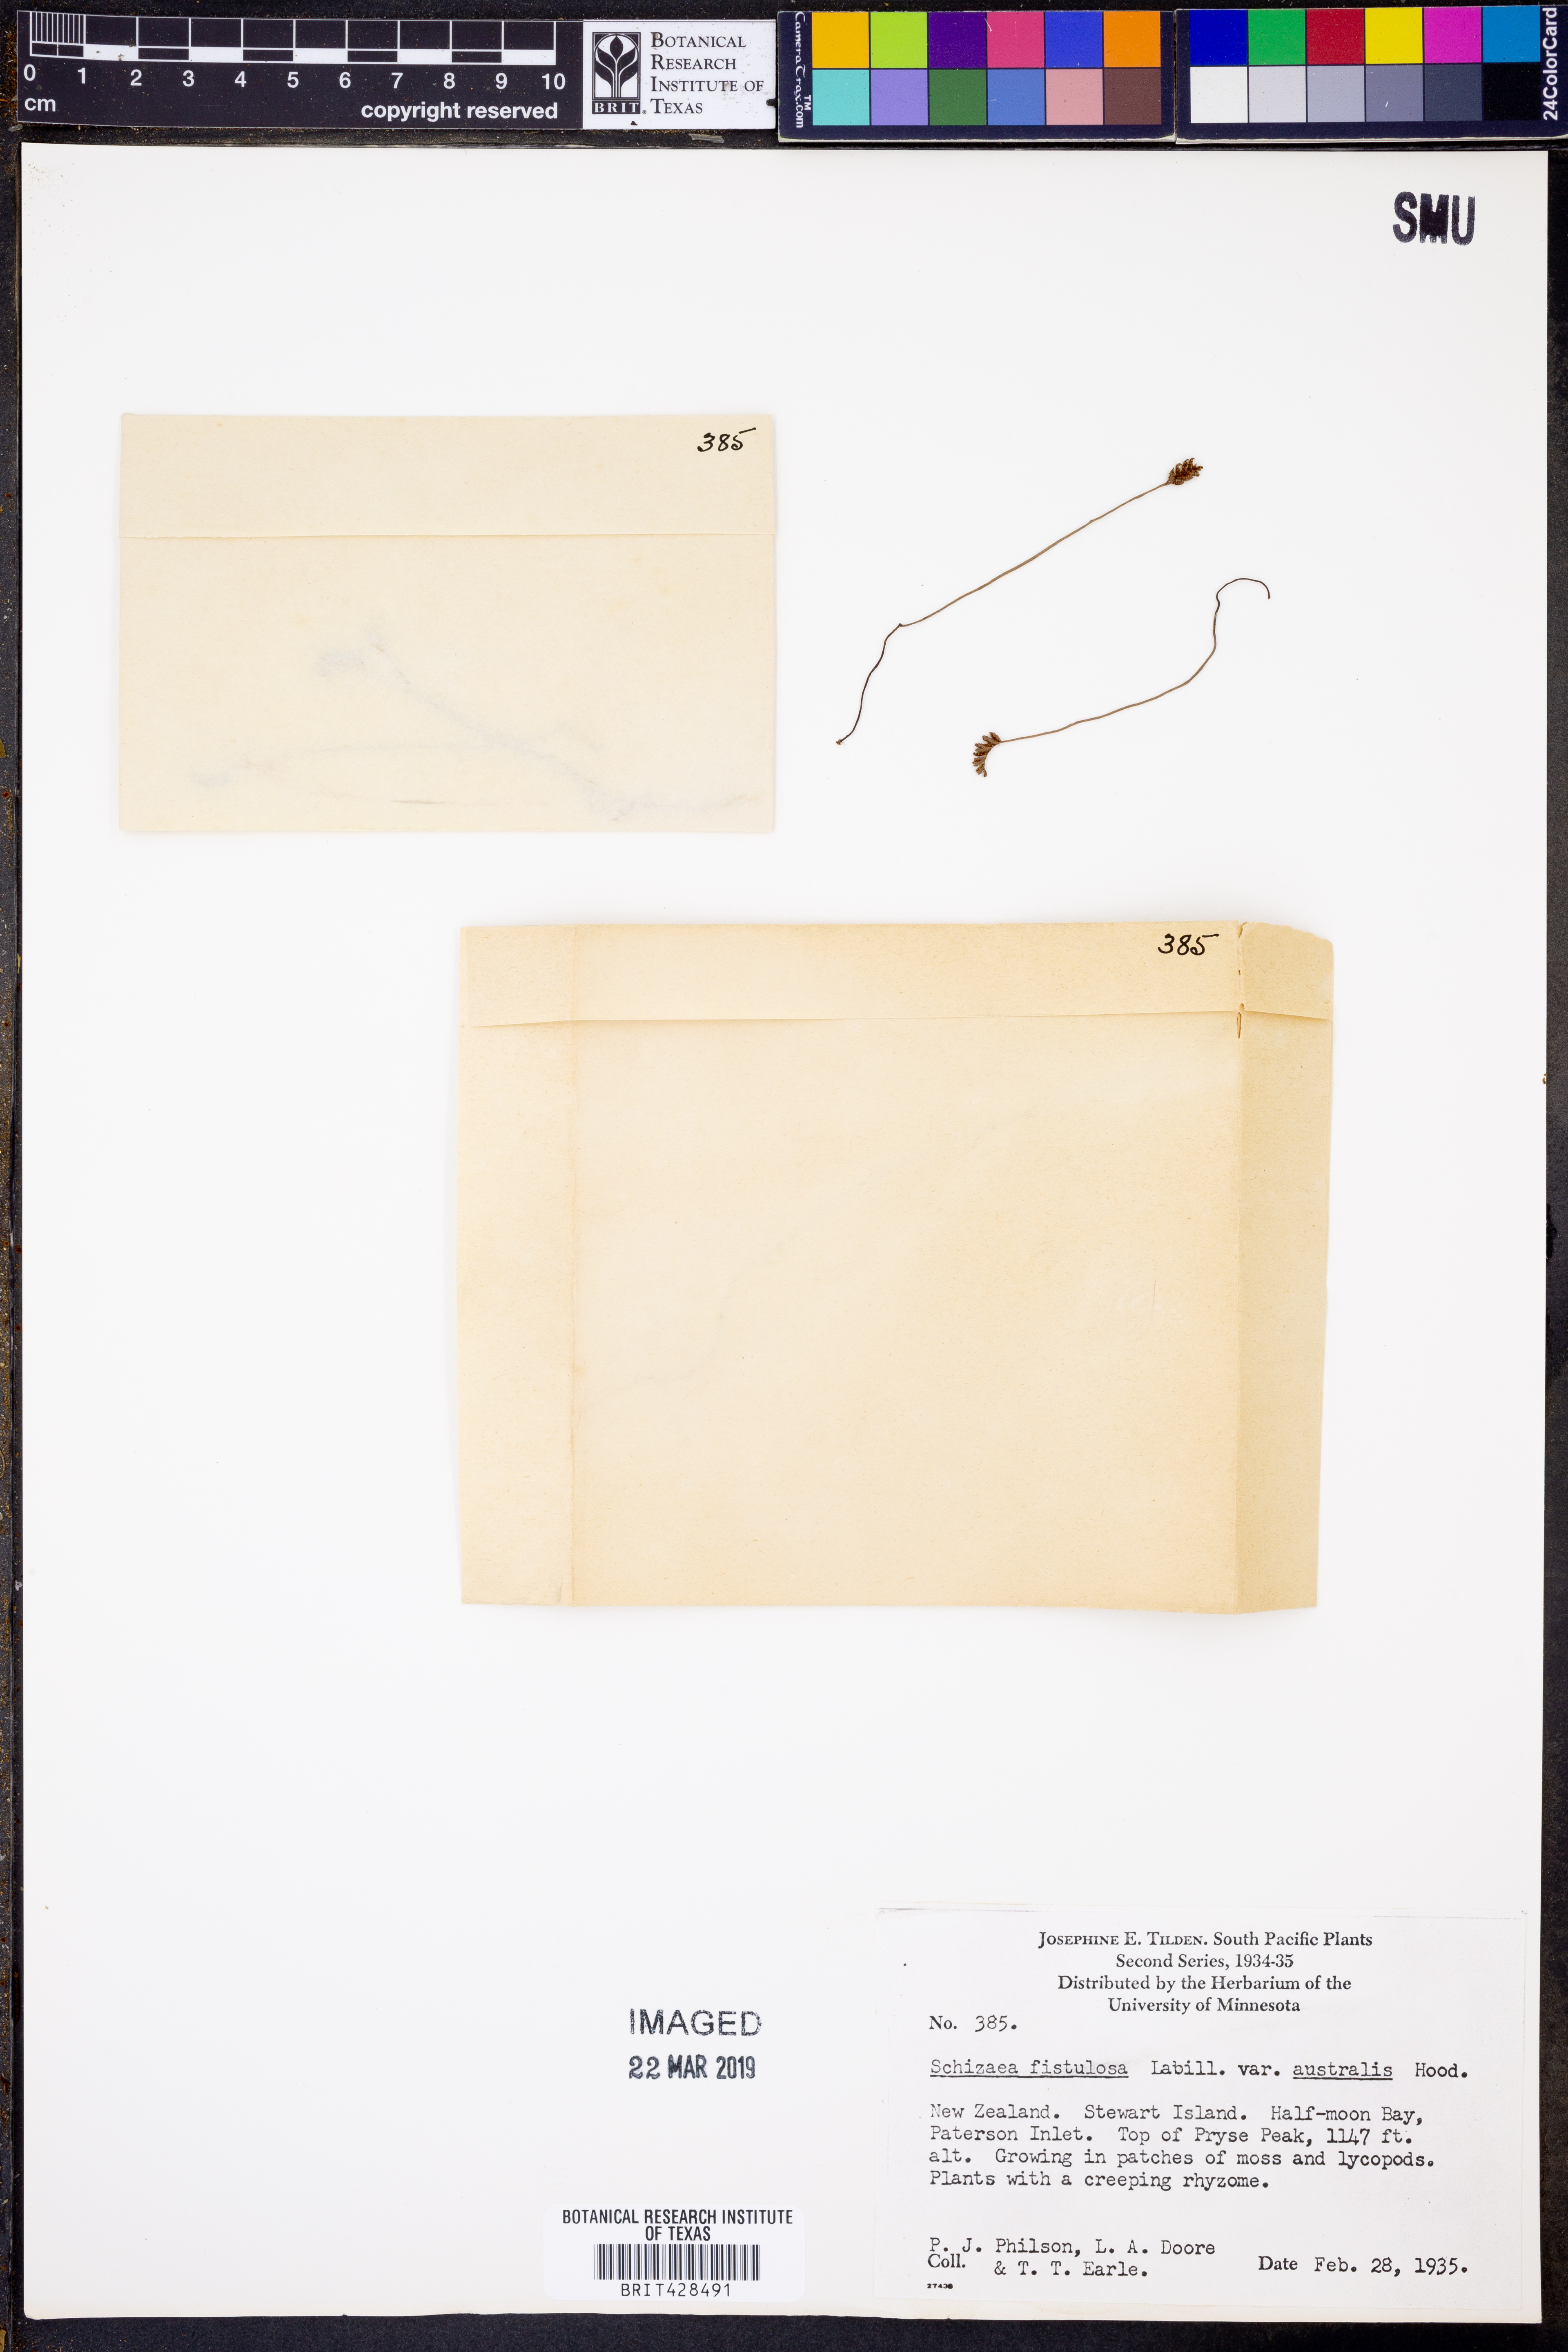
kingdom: Plantae
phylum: Tracheophyta
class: Polypodiopsida
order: Schizaeales
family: Schizaeaceae
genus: Microschizaea
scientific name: Microschizaea australis
